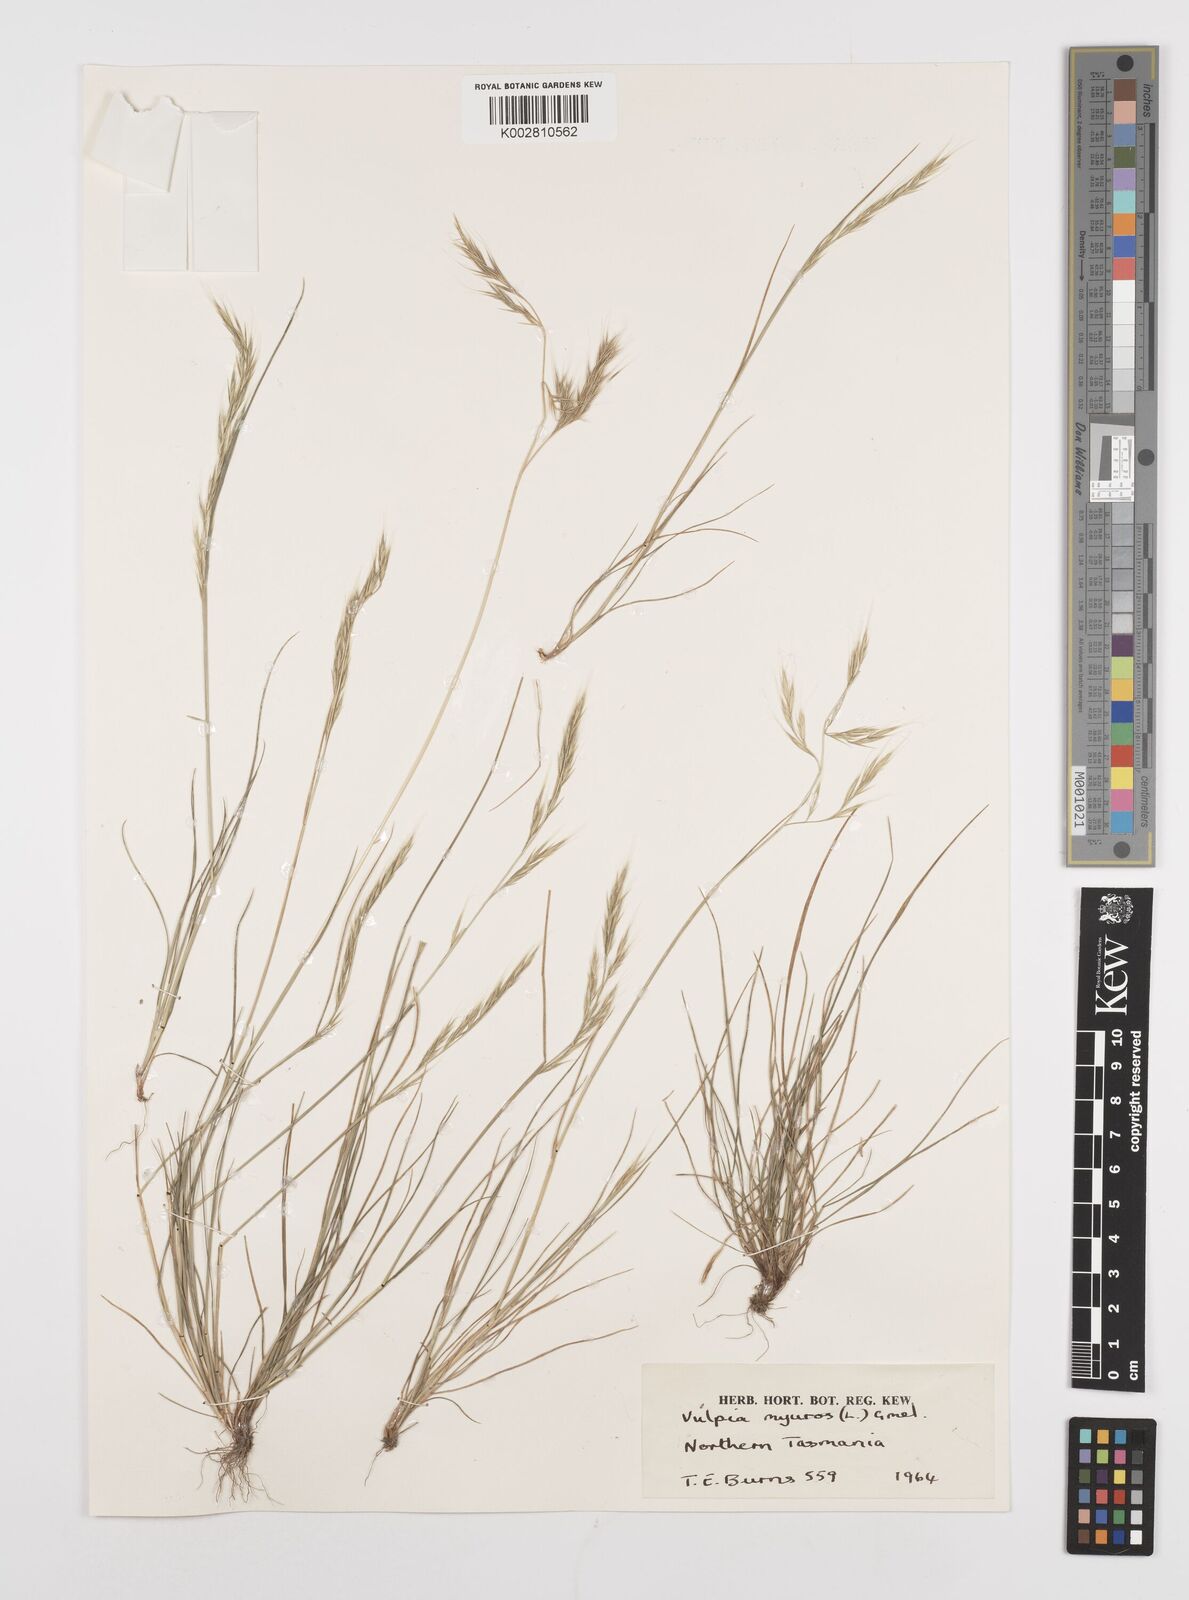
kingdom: Plantae
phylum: Tracheophyta
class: Liliopsida
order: Poales
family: Poaceae
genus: Festuca
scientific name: Festuca myuros
